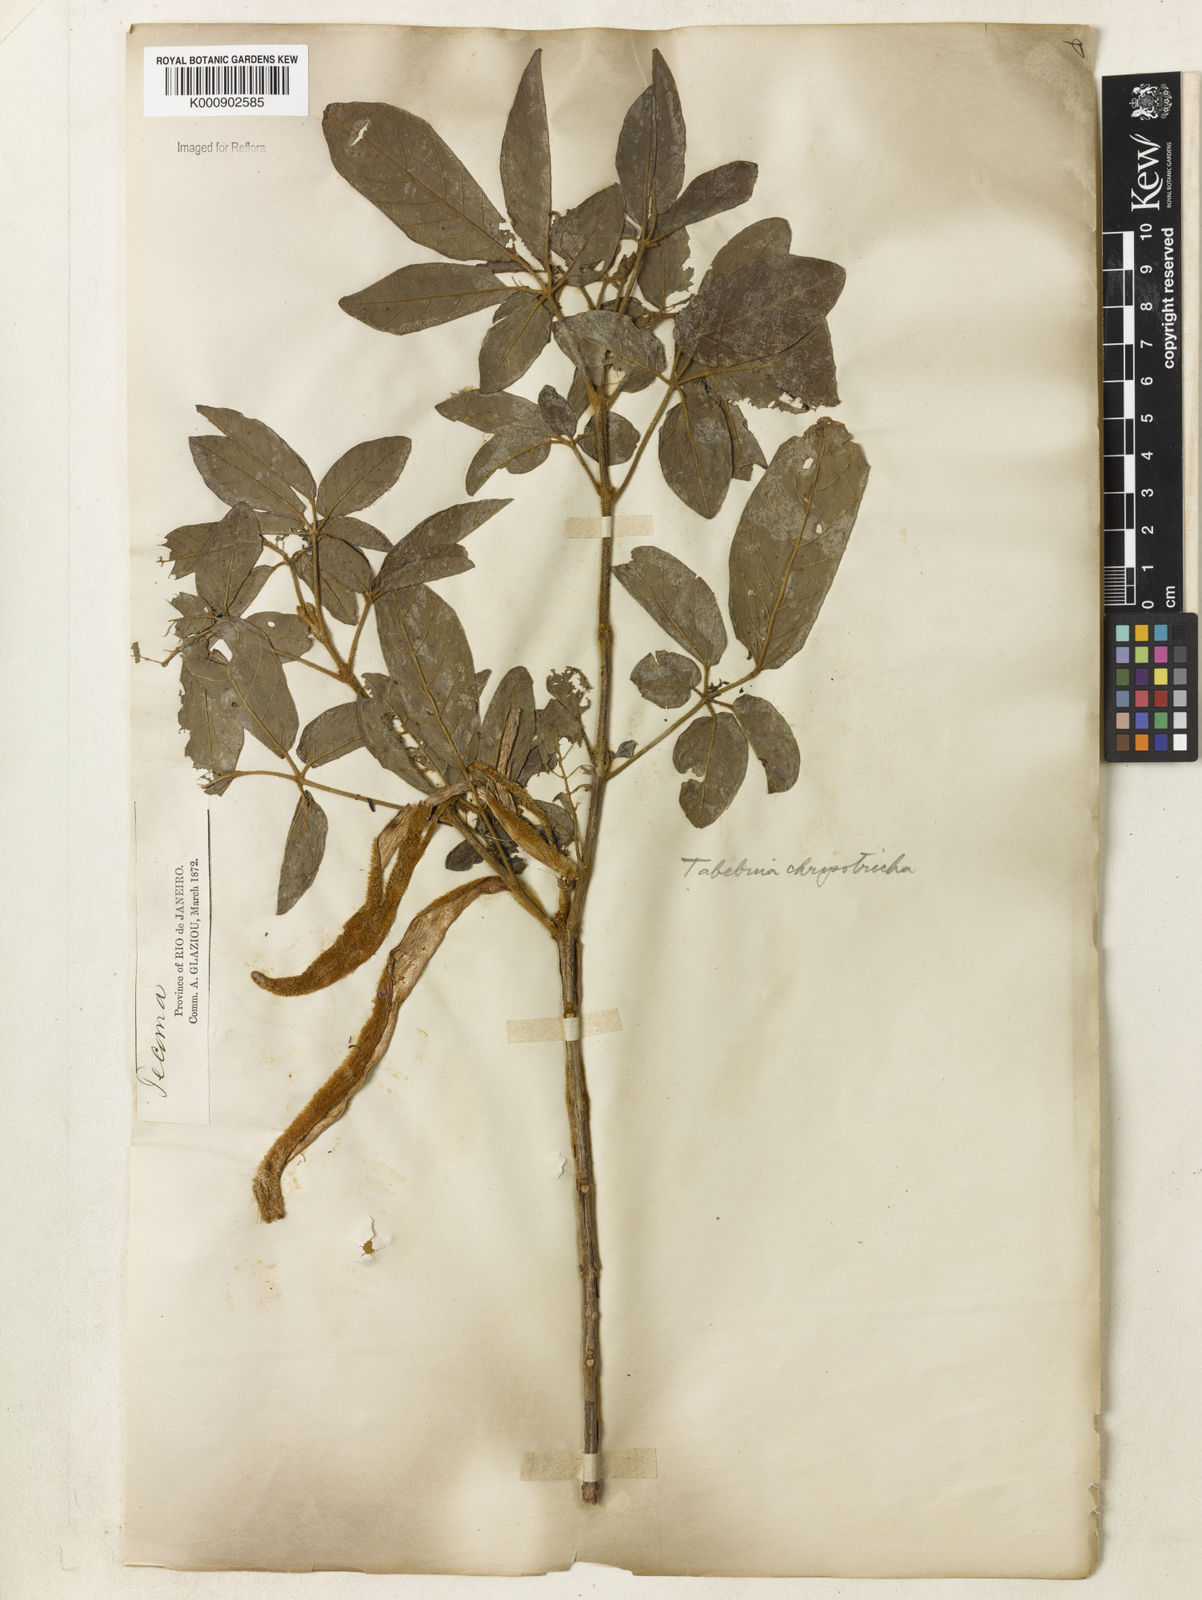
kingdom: Plantae
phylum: Tracheophyta
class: Magnoliopsida
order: Lamiales
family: Bignoniaceae
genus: Handroanthus
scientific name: Handroanthus chrysotrichus
